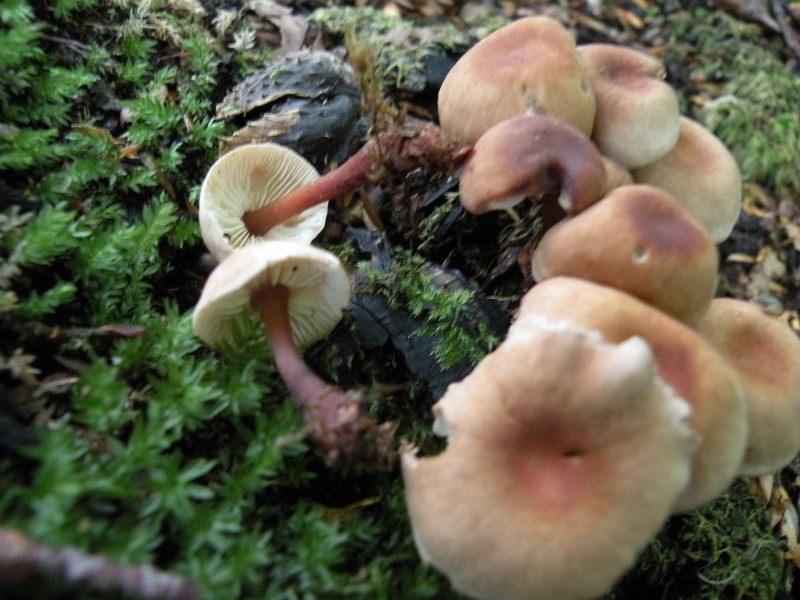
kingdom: Fungi
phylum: Basidiomycota
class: Agaricomycetes
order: Agaricales
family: Omphalotaceae
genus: Gymnopus
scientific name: Gymnopus erythropus
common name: rødstokket fladhat
